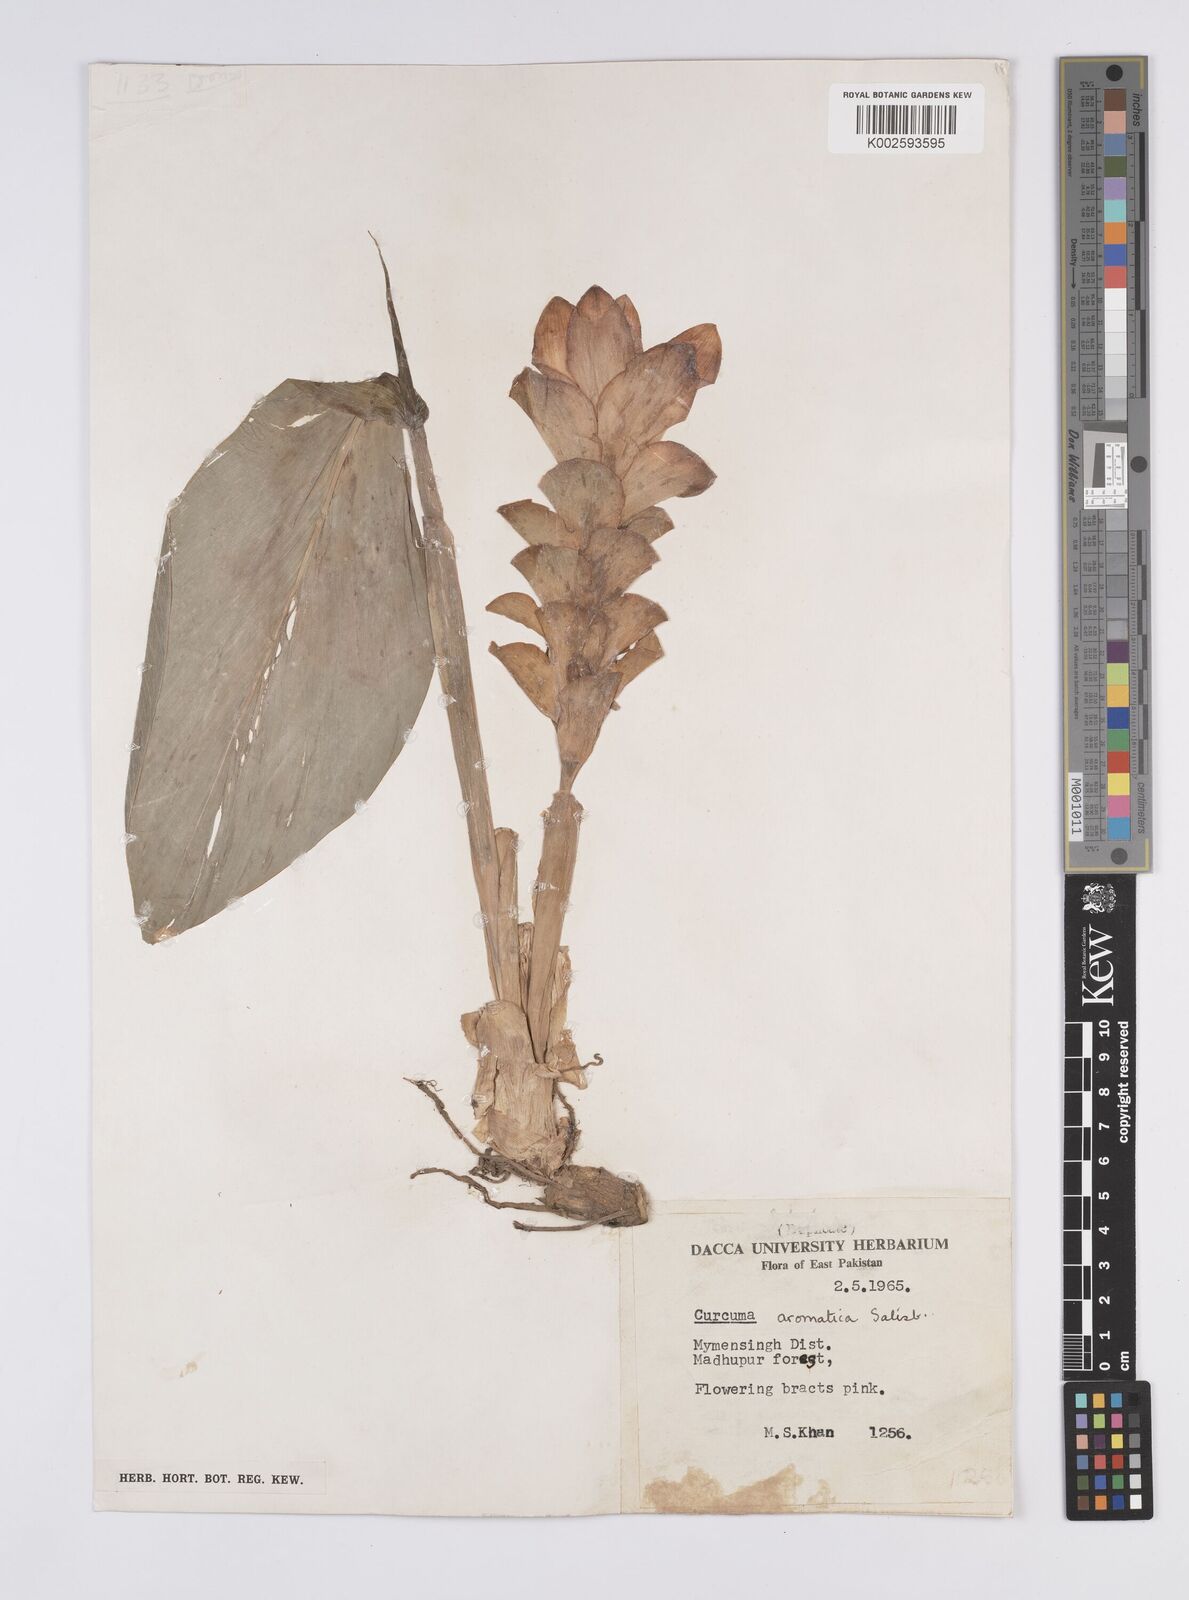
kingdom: Plantae
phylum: Tracheophyta
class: Liliopsida
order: Zingiberales
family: Zingiberaceae
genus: Curcuma
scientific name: Curcuma aromatica
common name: Wild turmeric
